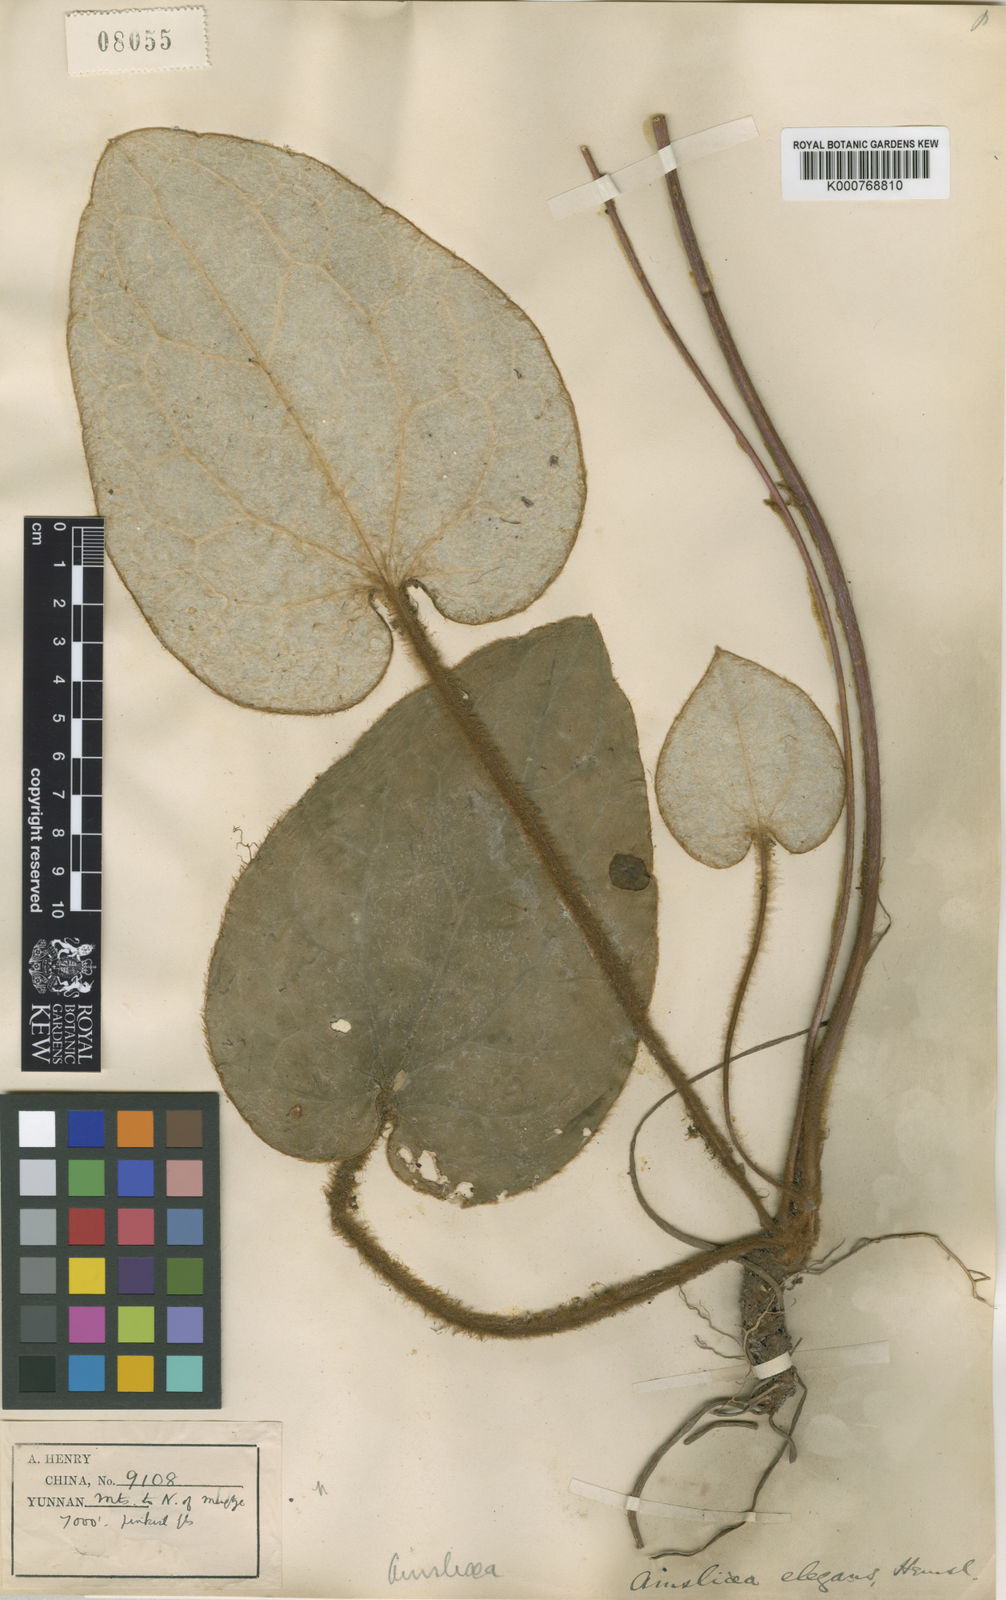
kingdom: Plantae
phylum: Tracheophyta
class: Magnoliopsida
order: Asterales
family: Asteraceae
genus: Ainsliaea
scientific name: Ainsliaea
